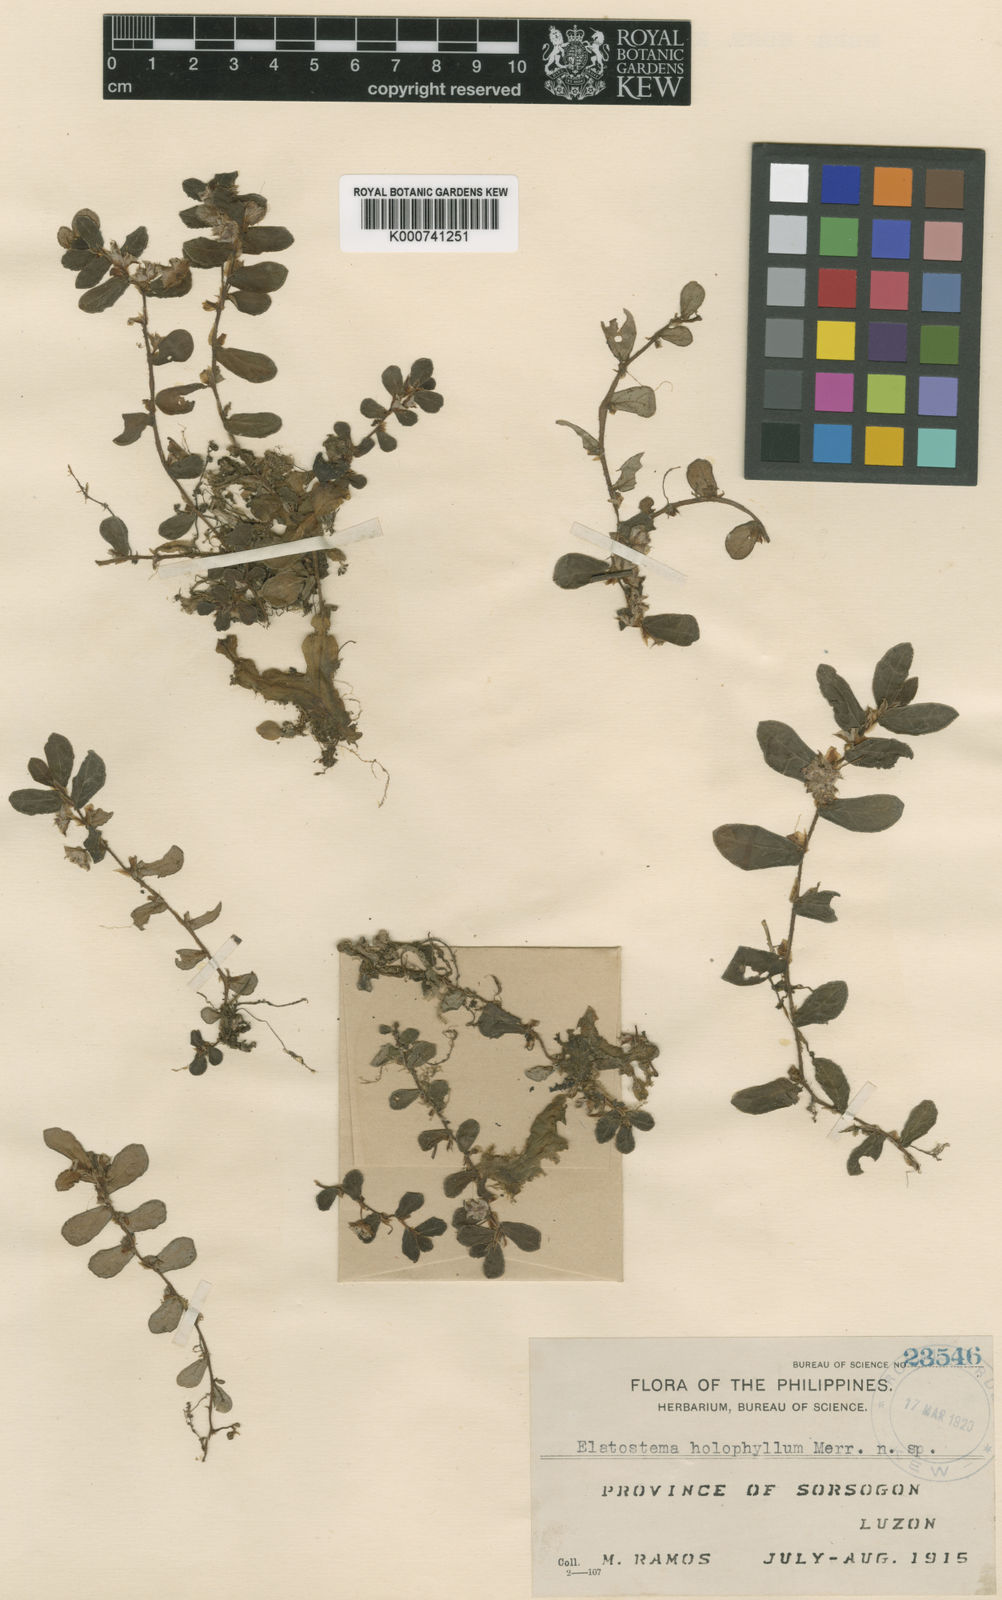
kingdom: Plantae
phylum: Tracheophyta
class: Magnoliopsida
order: Rosales
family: Urticaceae
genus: Elatostema
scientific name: Elatostema
